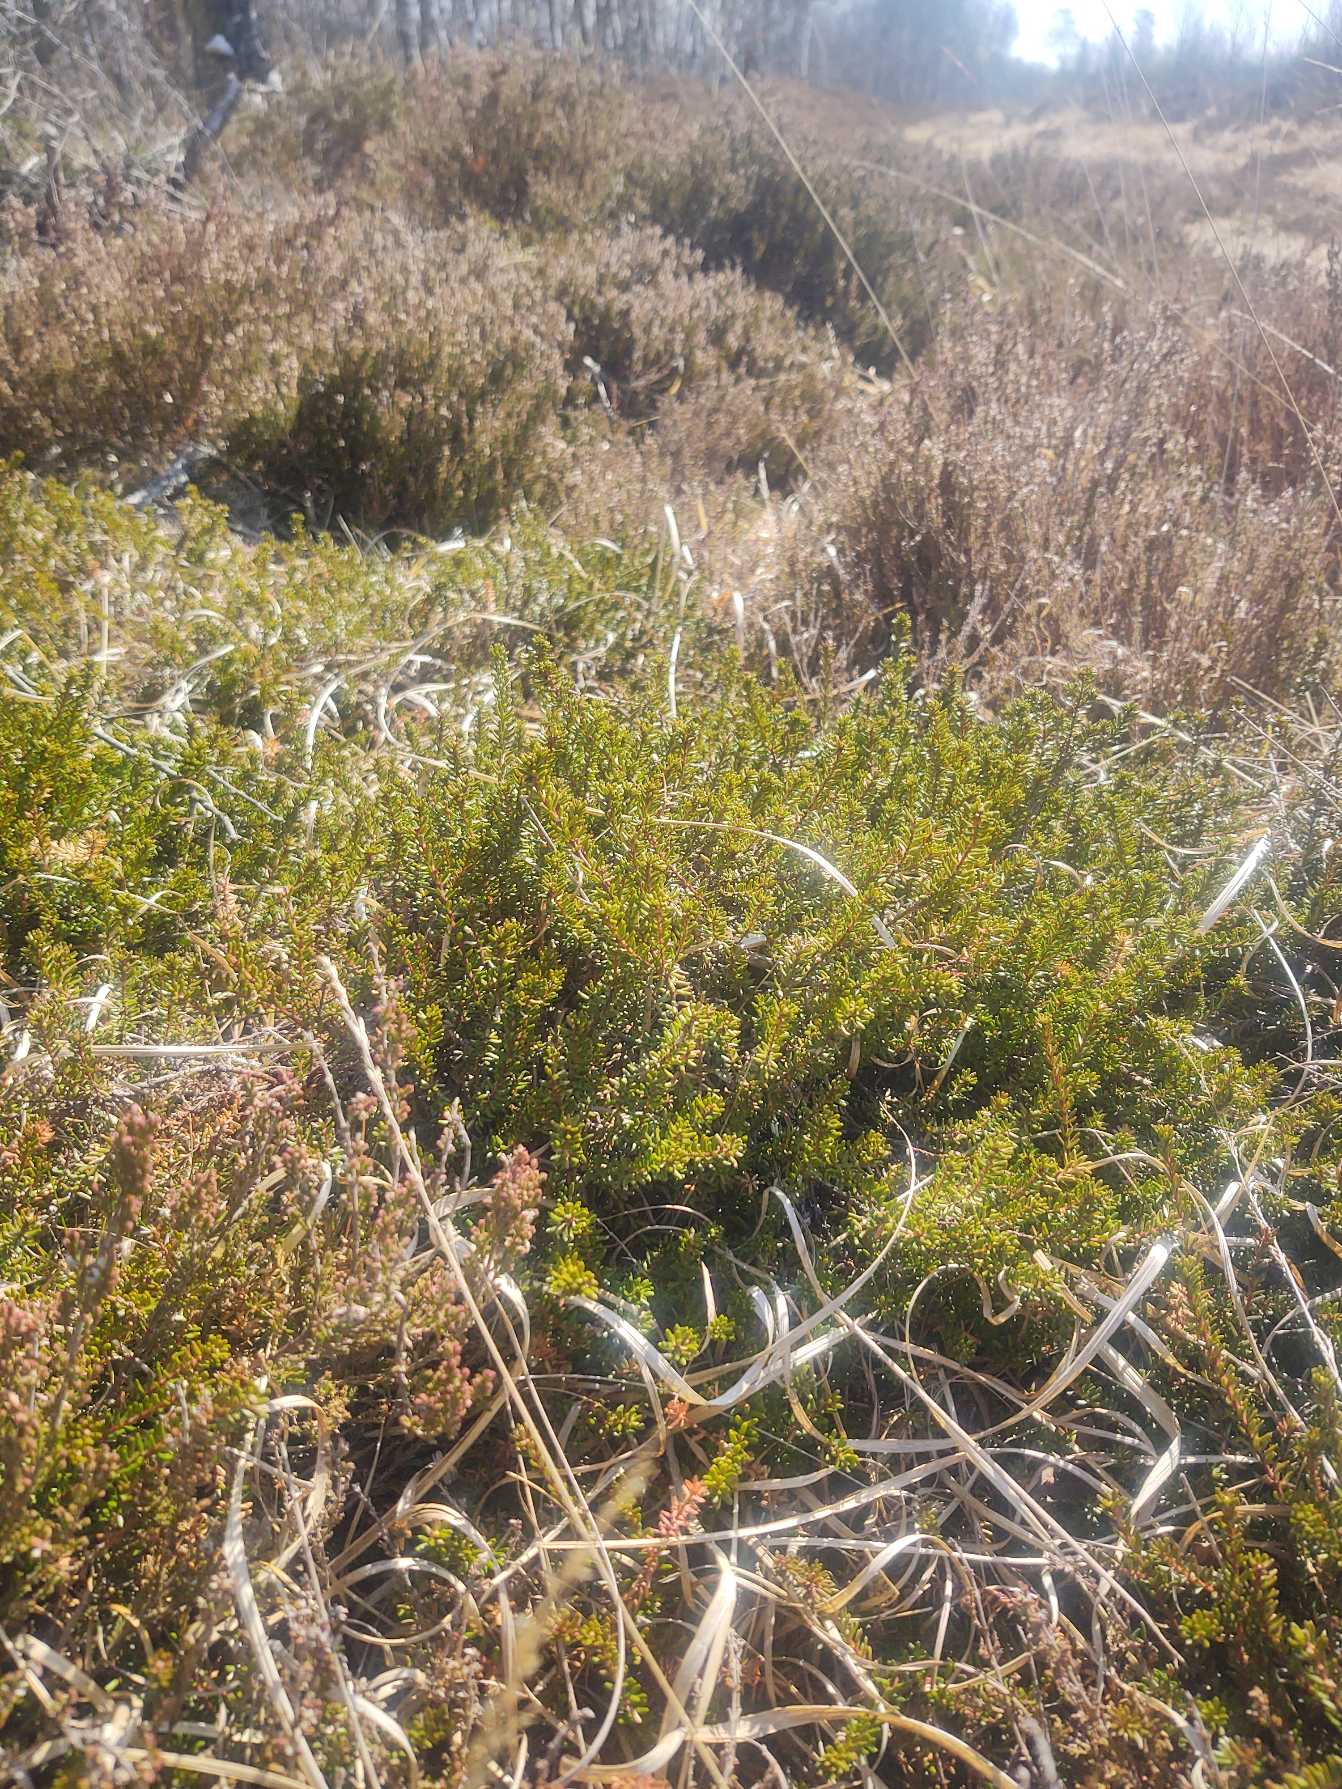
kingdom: Plantae
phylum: Tracheophyta
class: Magnoliopsida
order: Ericales
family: Ericaceae
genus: Empetrum
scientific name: Empetrum nigrum
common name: Revling
